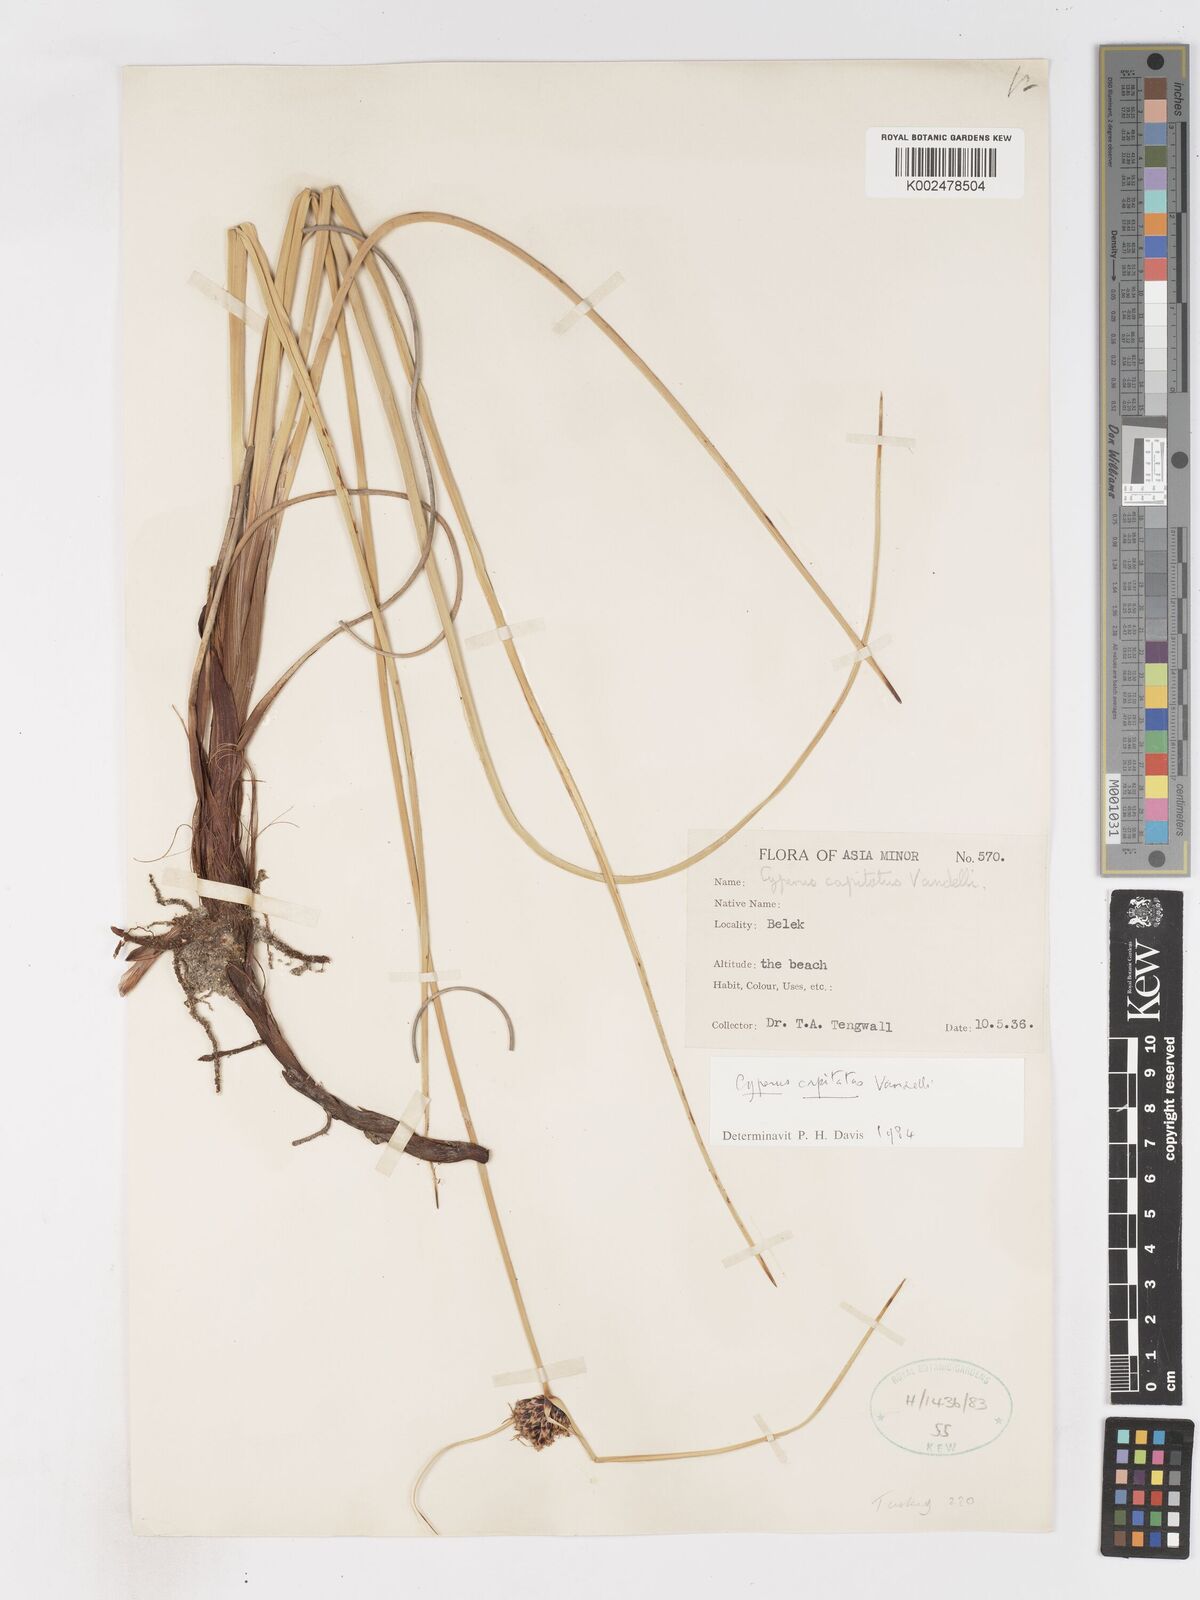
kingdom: Plantae
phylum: Tracheophyta
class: Liliopsida
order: Poales
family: Cyperaceae
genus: Cyperus
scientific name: Cyperus capitatus
